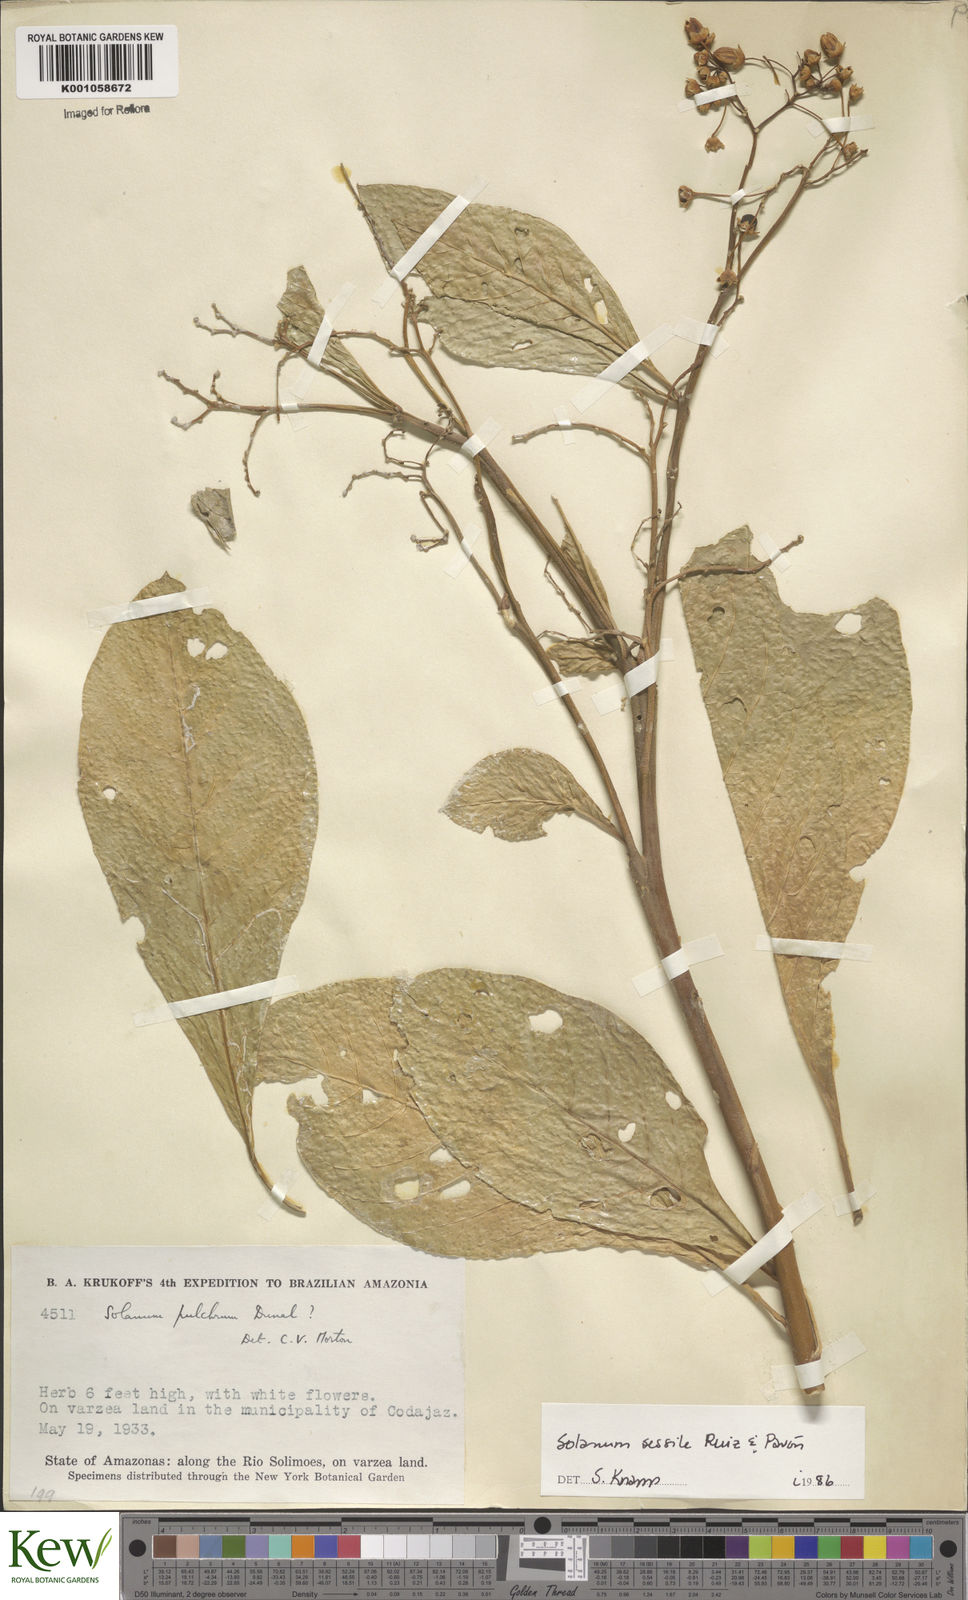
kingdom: Plantae
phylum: Tracheophyta
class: Magnoliopsida
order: Solanales
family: Solanaceae
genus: Solanum
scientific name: Solanum sessile
